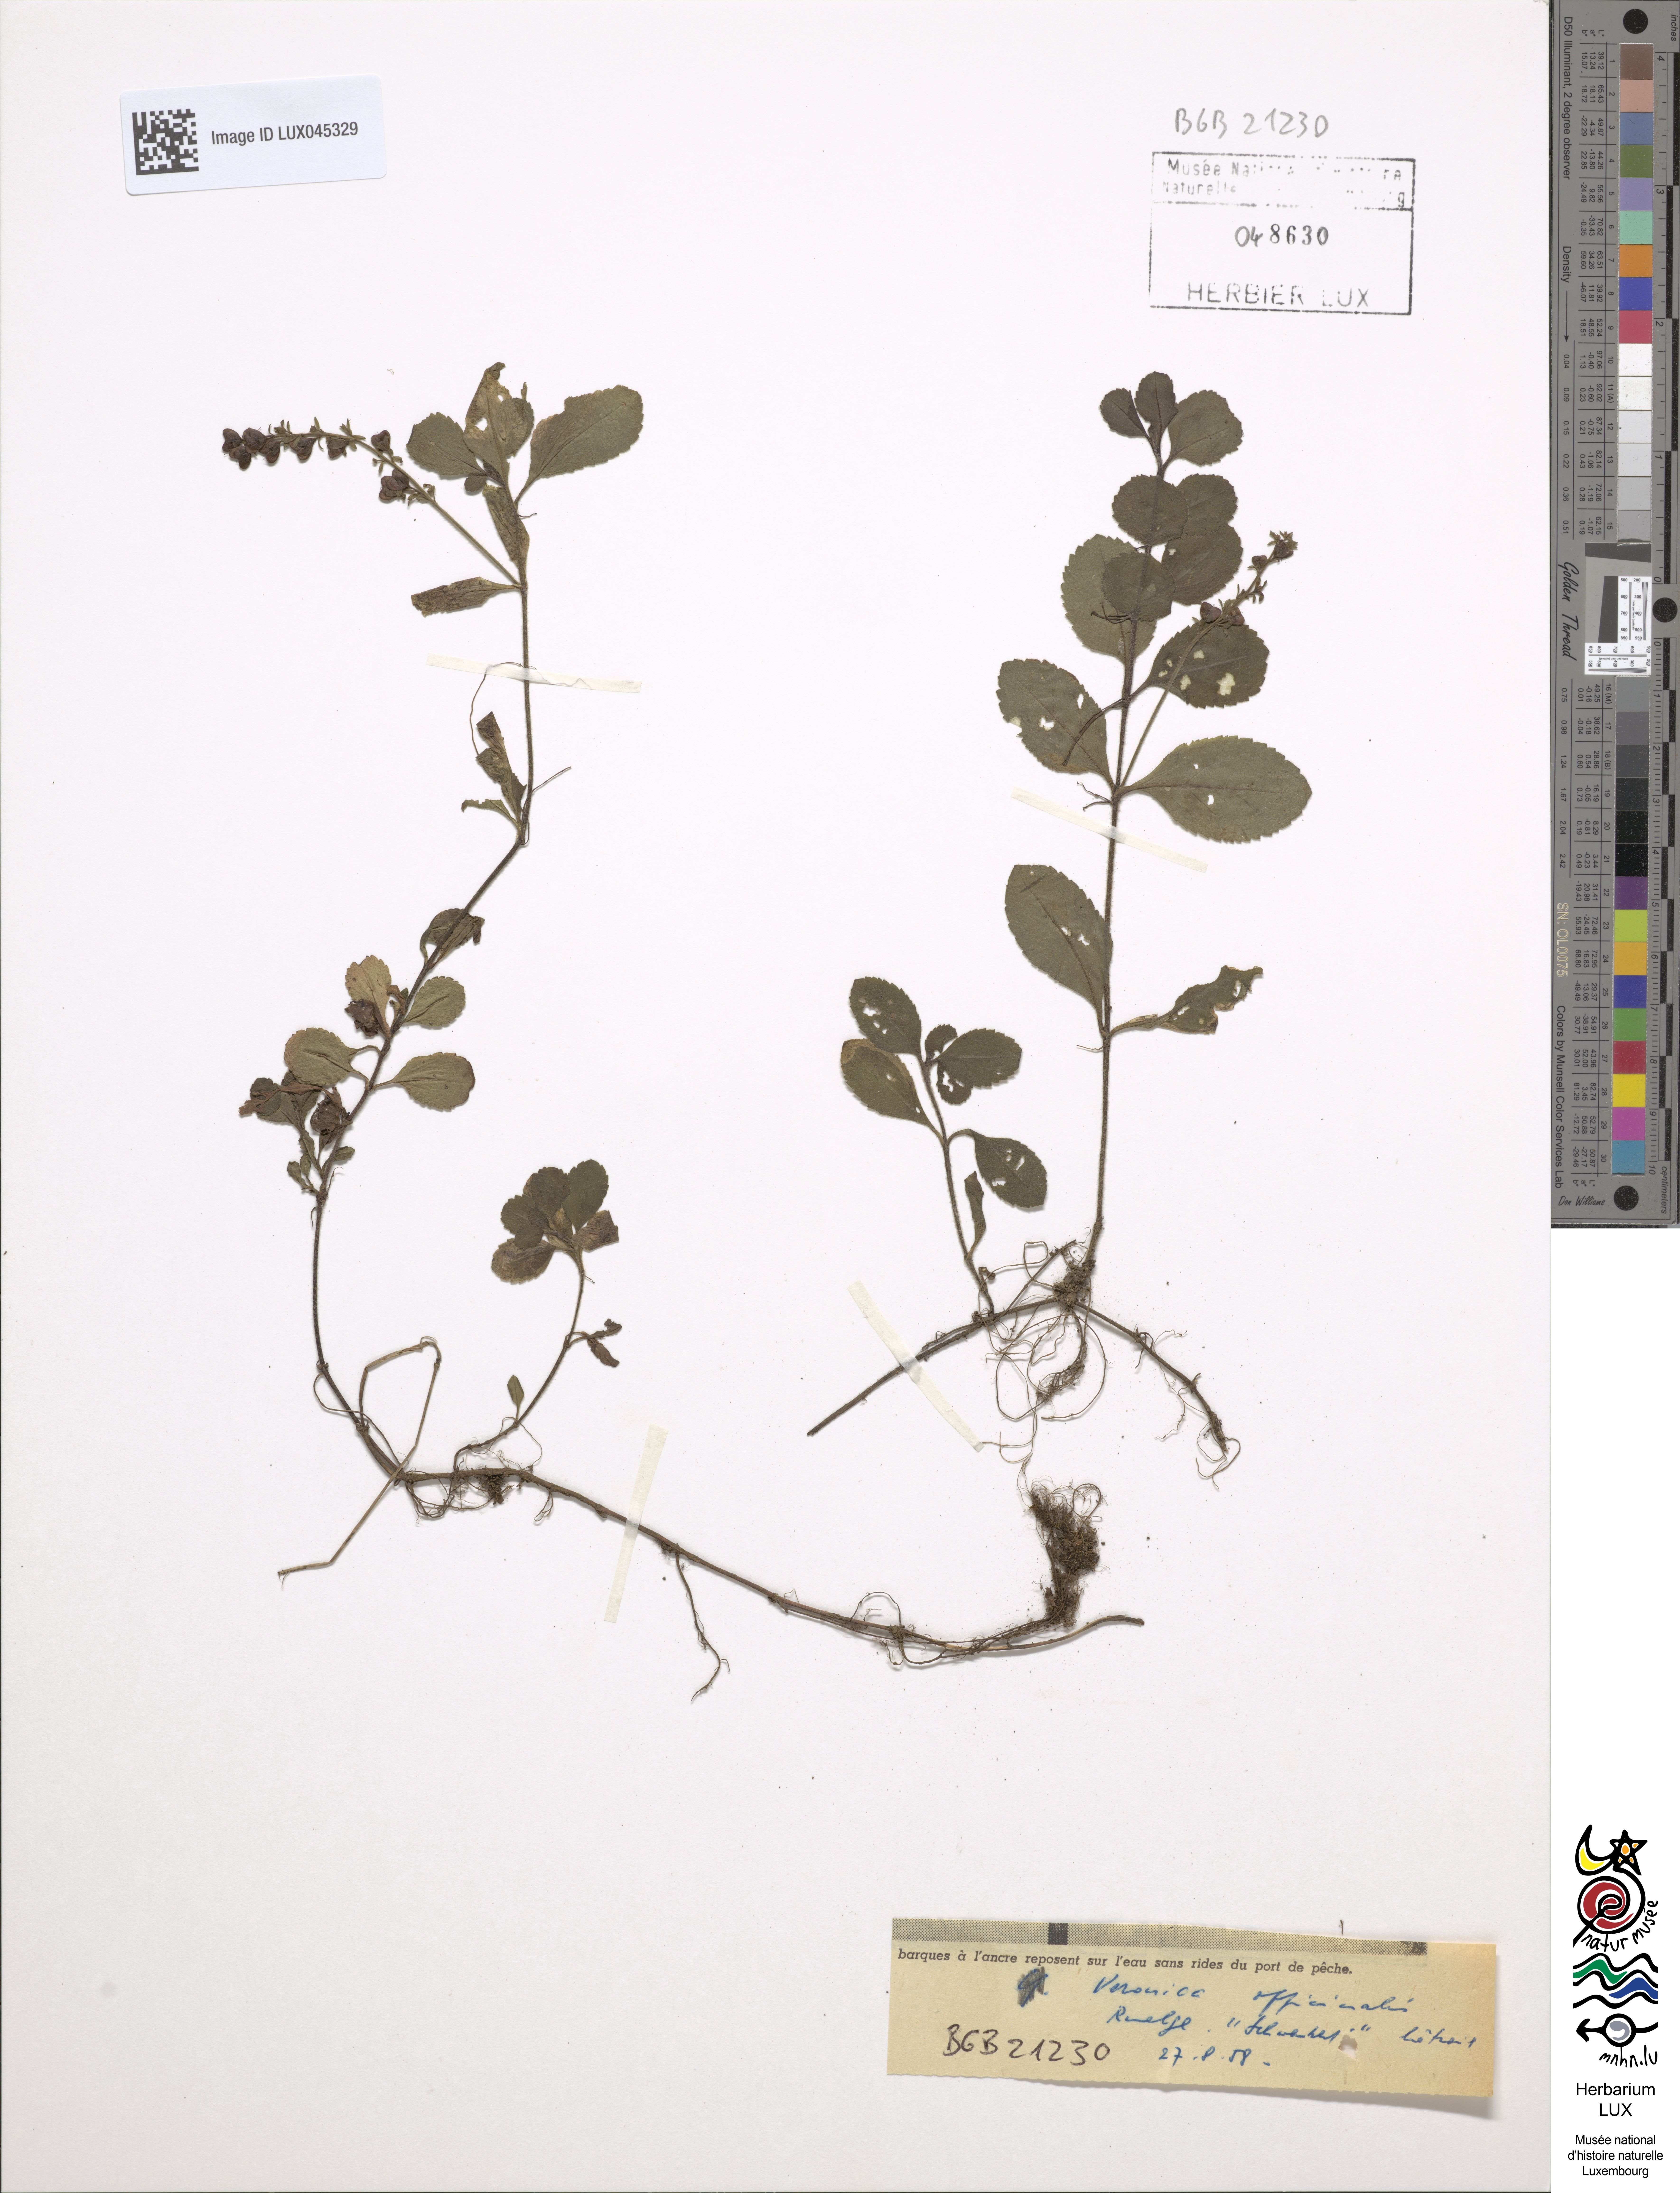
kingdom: Plantae
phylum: Tracheophyta
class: Magnoliopsida
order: Lamiales
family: Plantaginaceae
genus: Veronica
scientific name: Veronica officinalis
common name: Common speedwell
